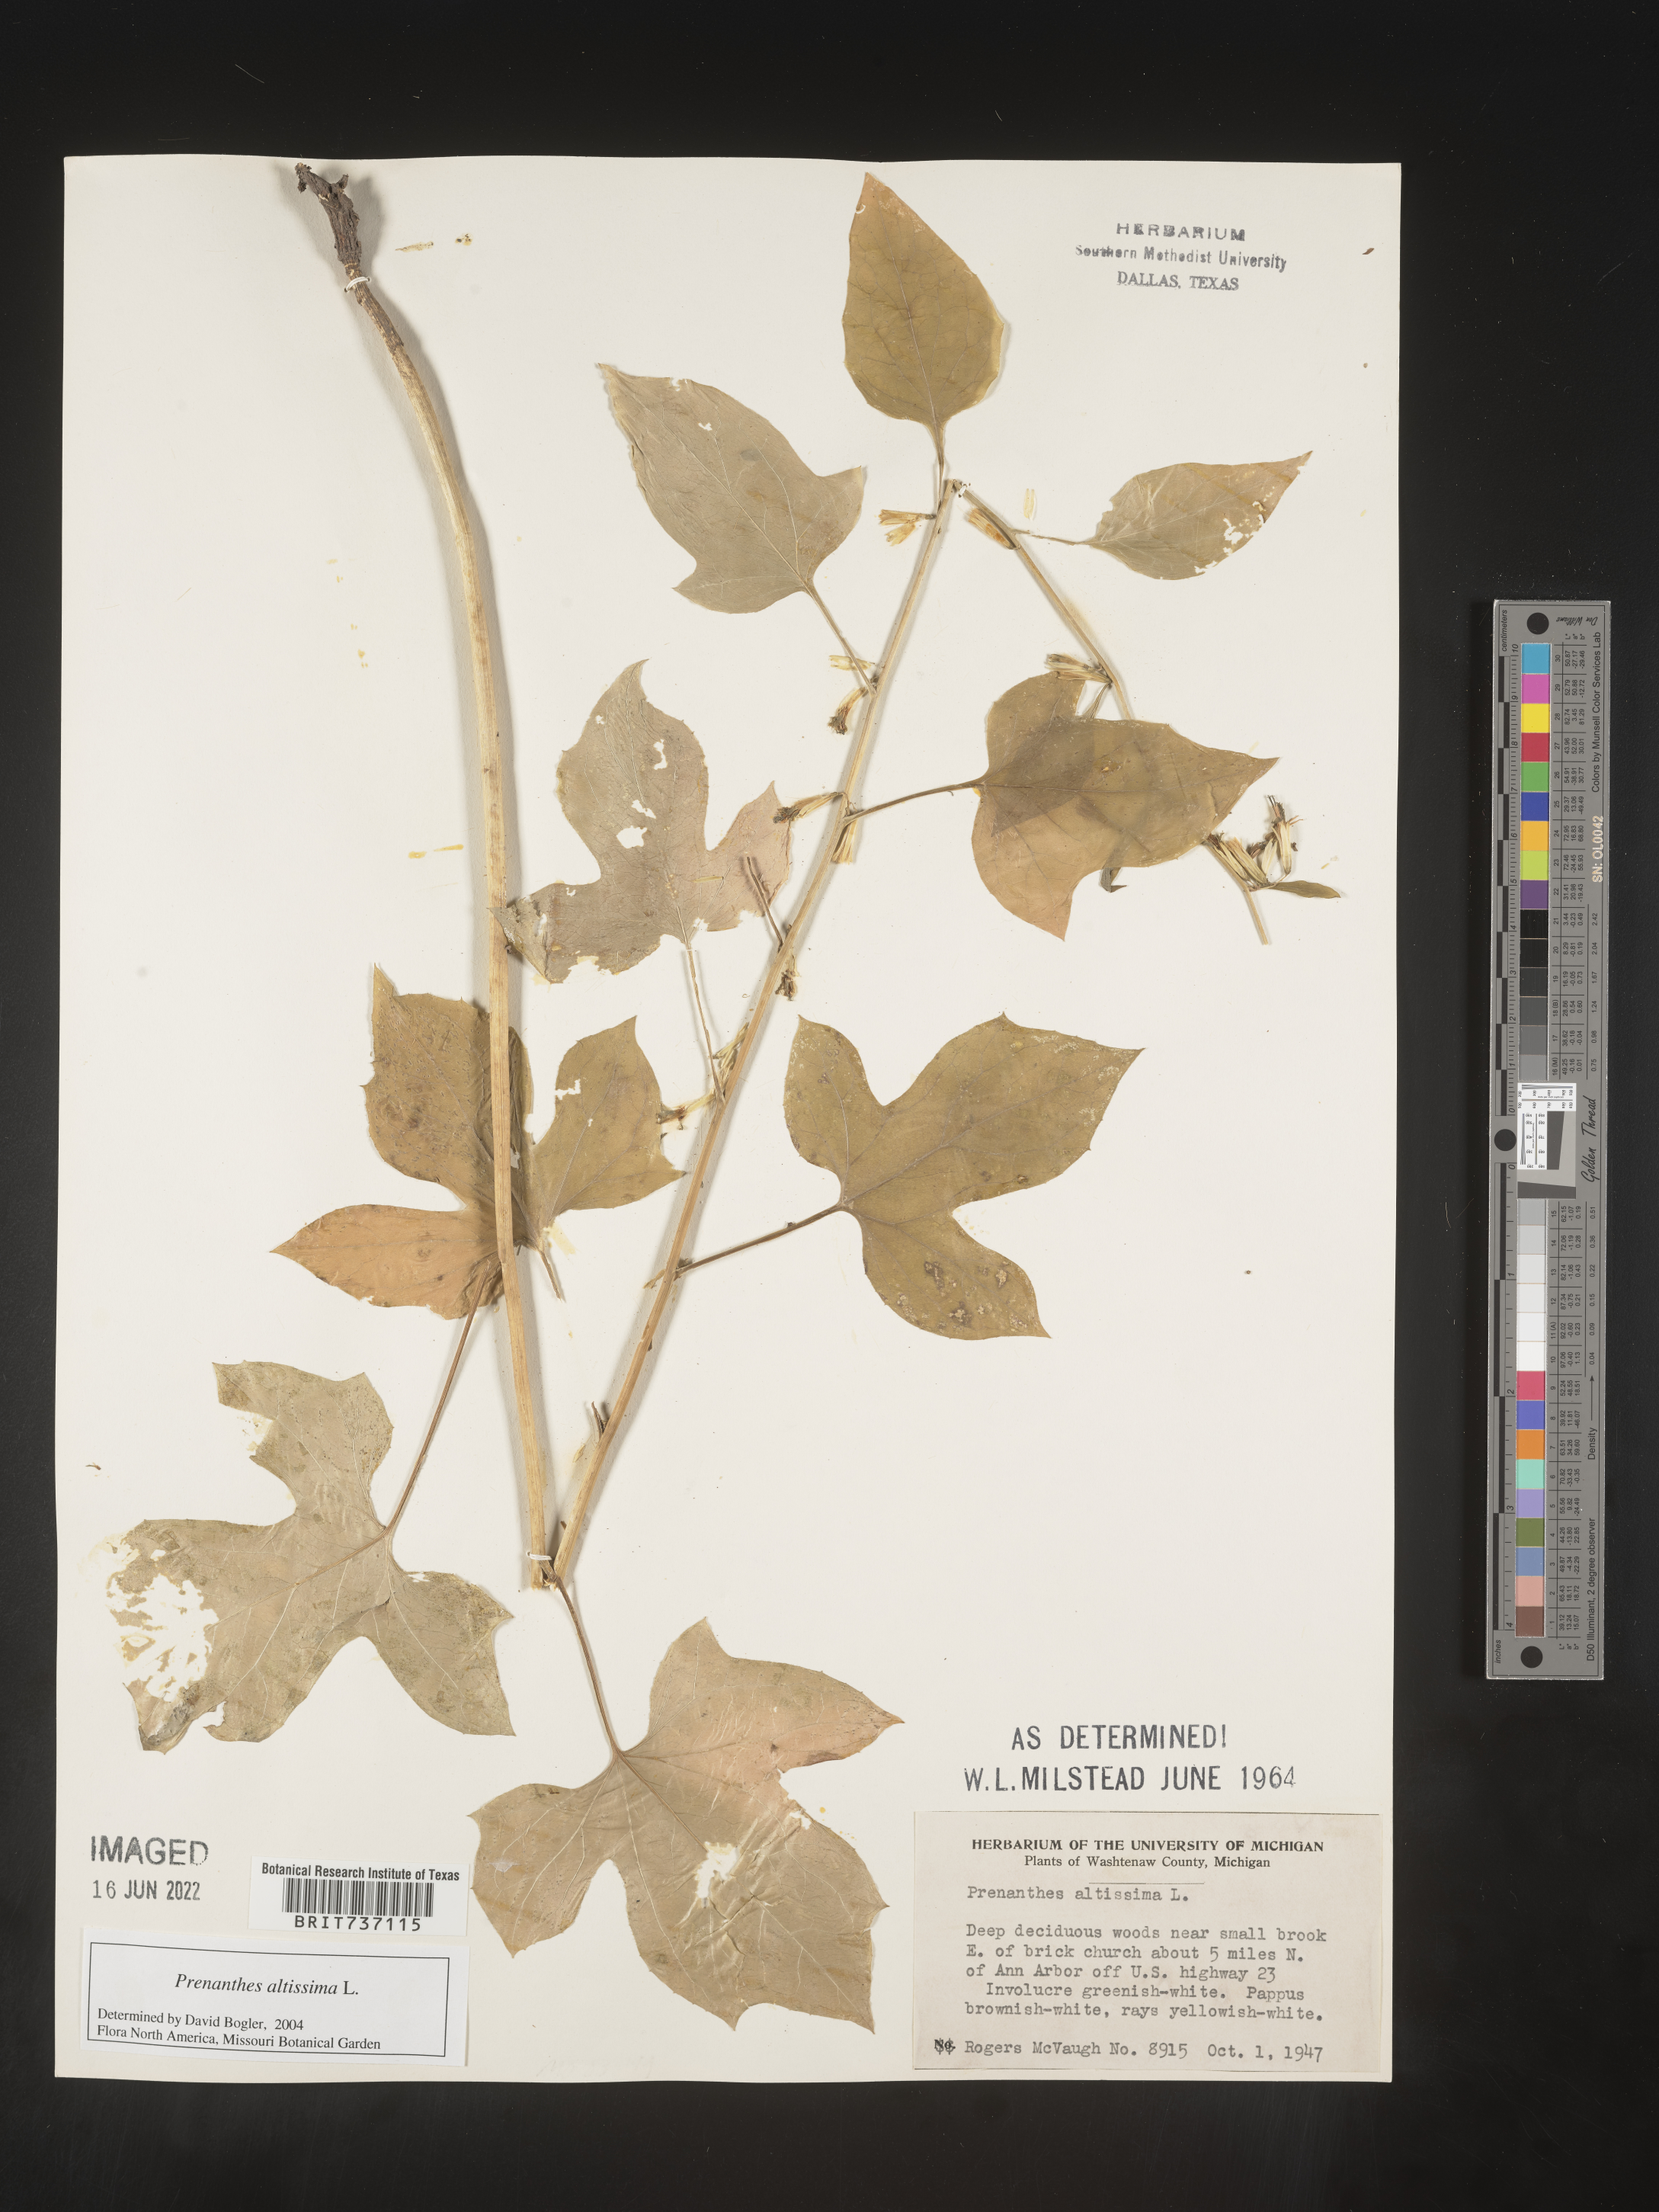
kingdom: Plantae
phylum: Tracheophyta
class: Magnoliopsida
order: Asterales
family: Asteraceae
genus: Lactuca
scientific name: Lactuca quercina
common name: Wild lettuce
